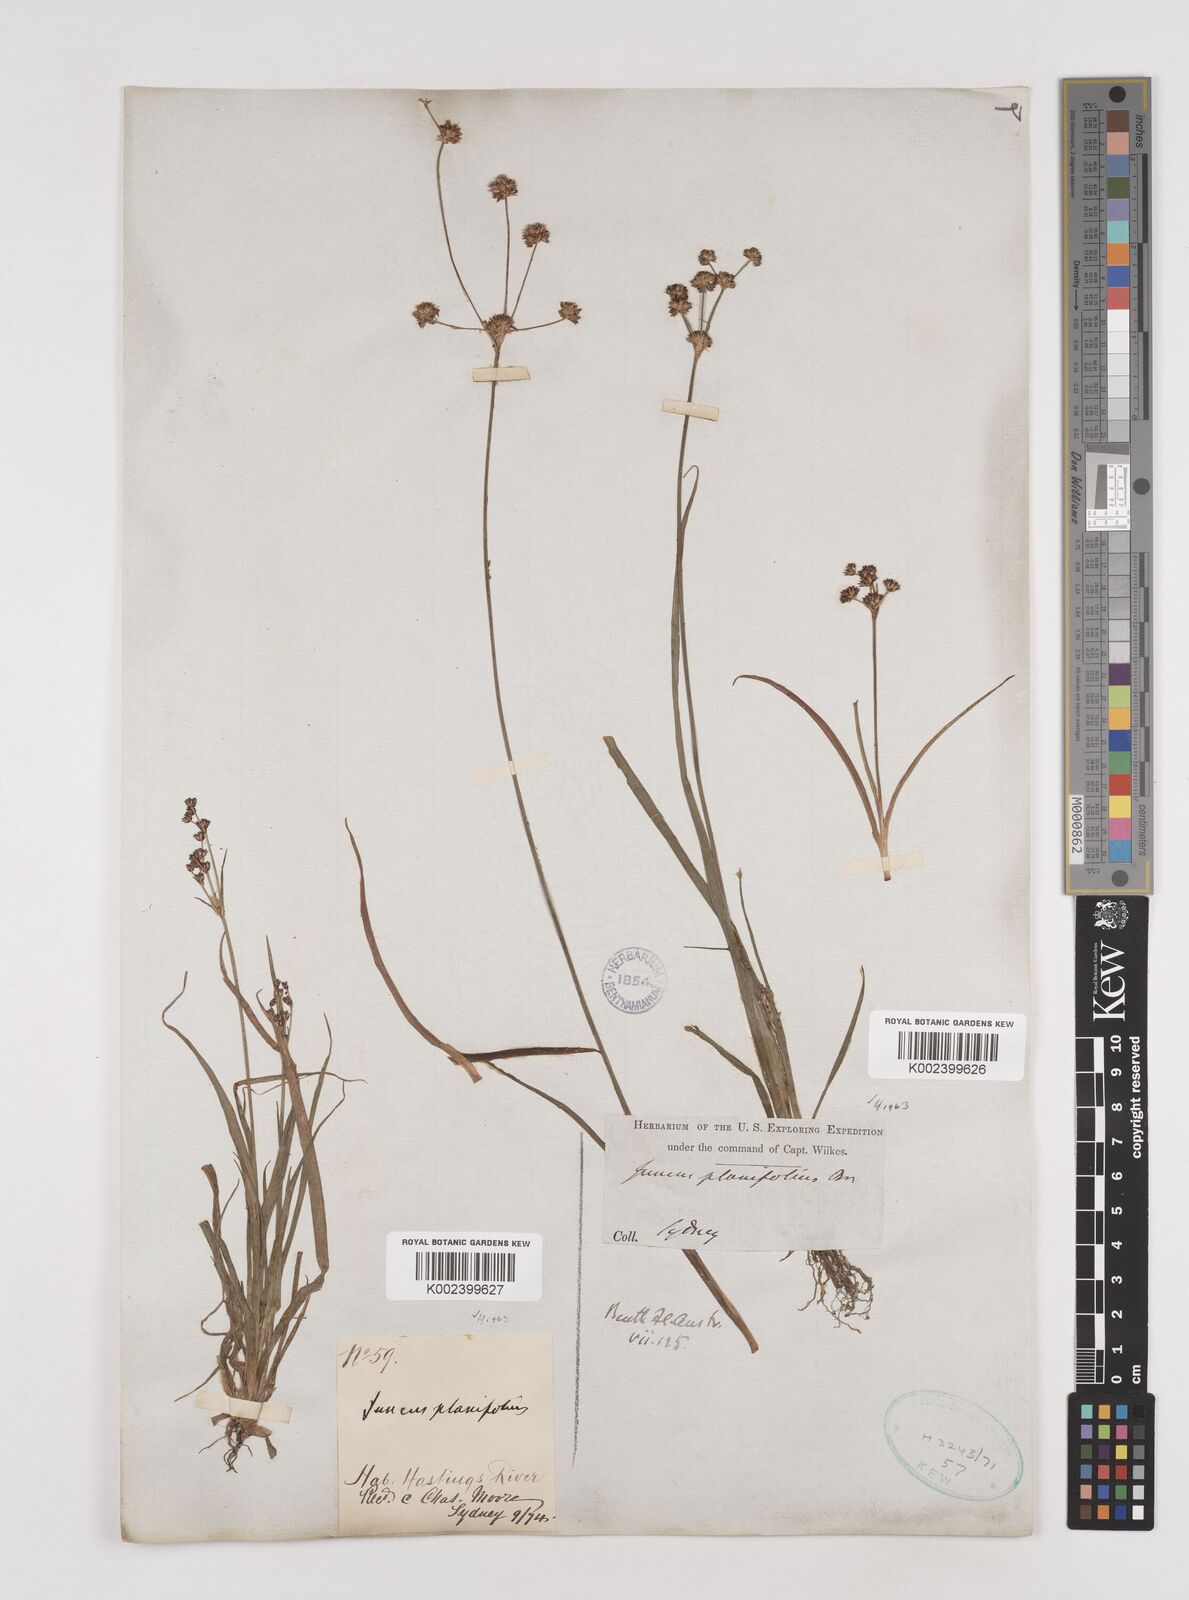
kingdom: Plantae
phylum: Tracheophyta
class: Liliopsida
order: Poales
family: Juncaceae
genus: Juncus
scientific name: Juncus planifolius
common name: Broadleaf rush
